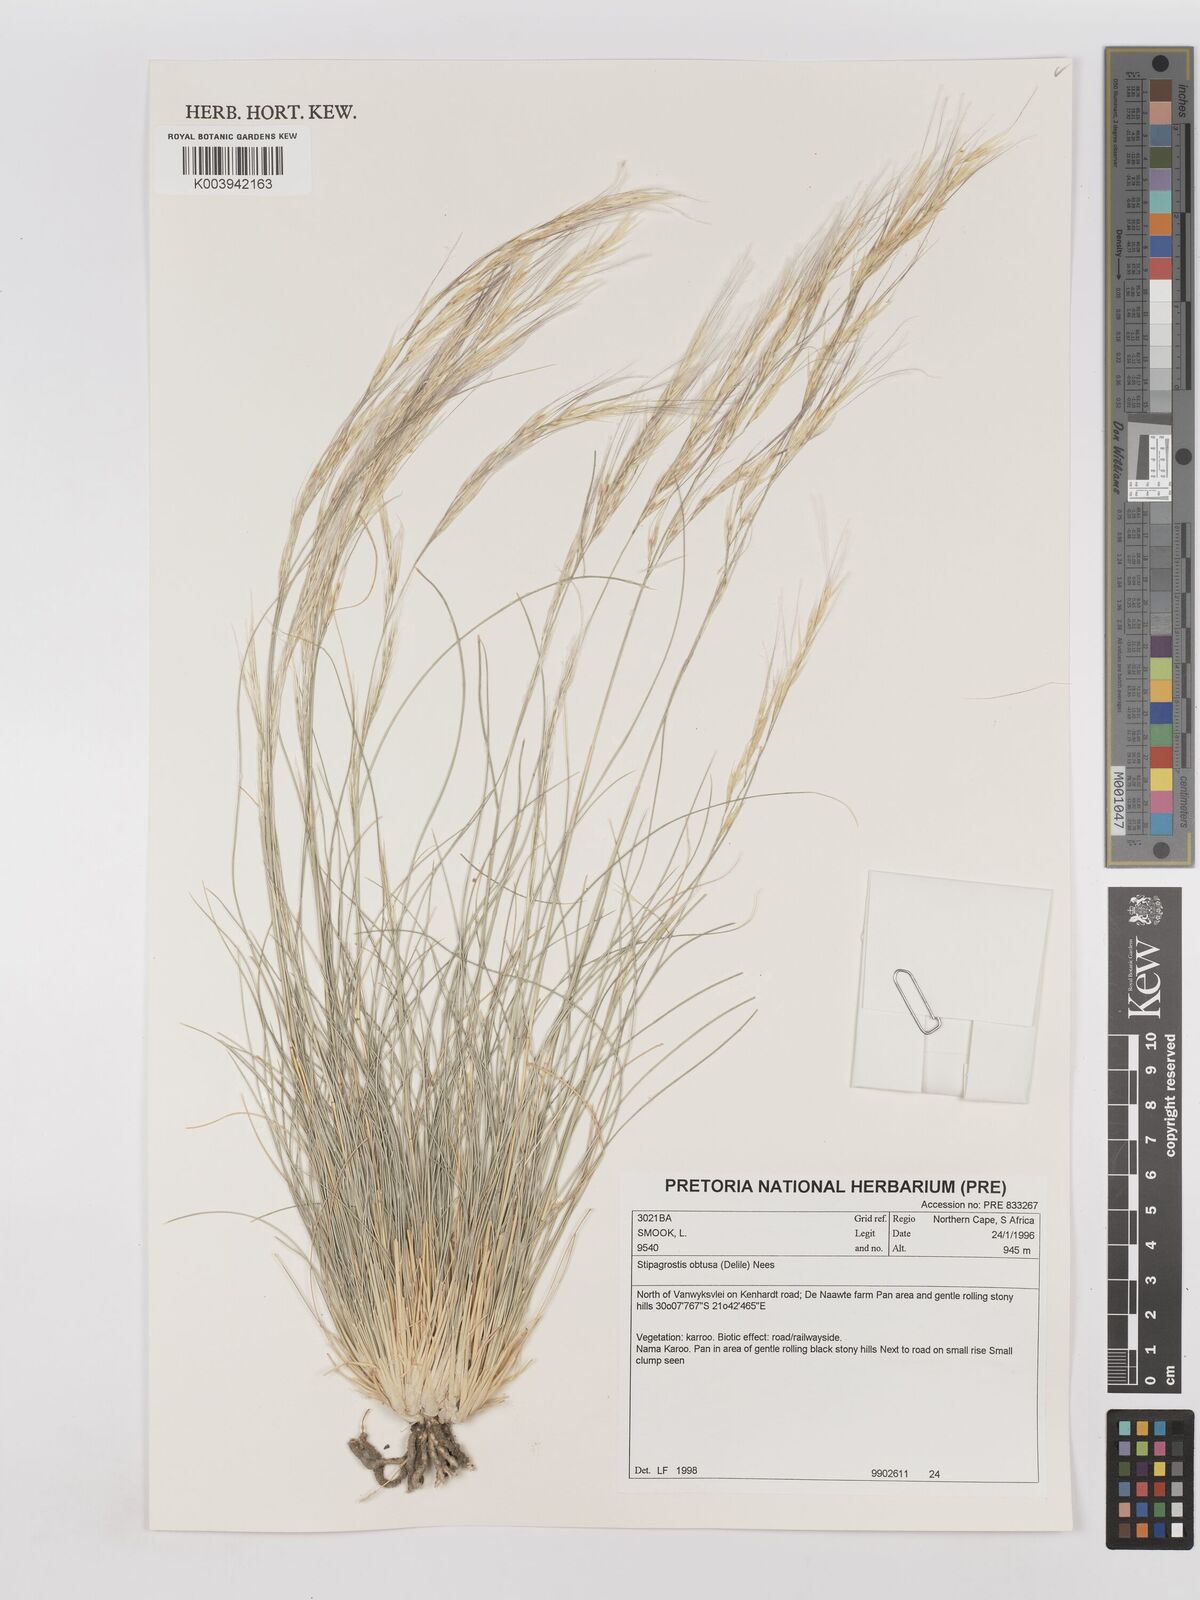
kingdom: Plantae
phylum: Tracheophyta
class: Liliopsida
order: Poales
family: Poaceae
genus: Stipagrostis
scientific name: Stipagrostis obtusa
